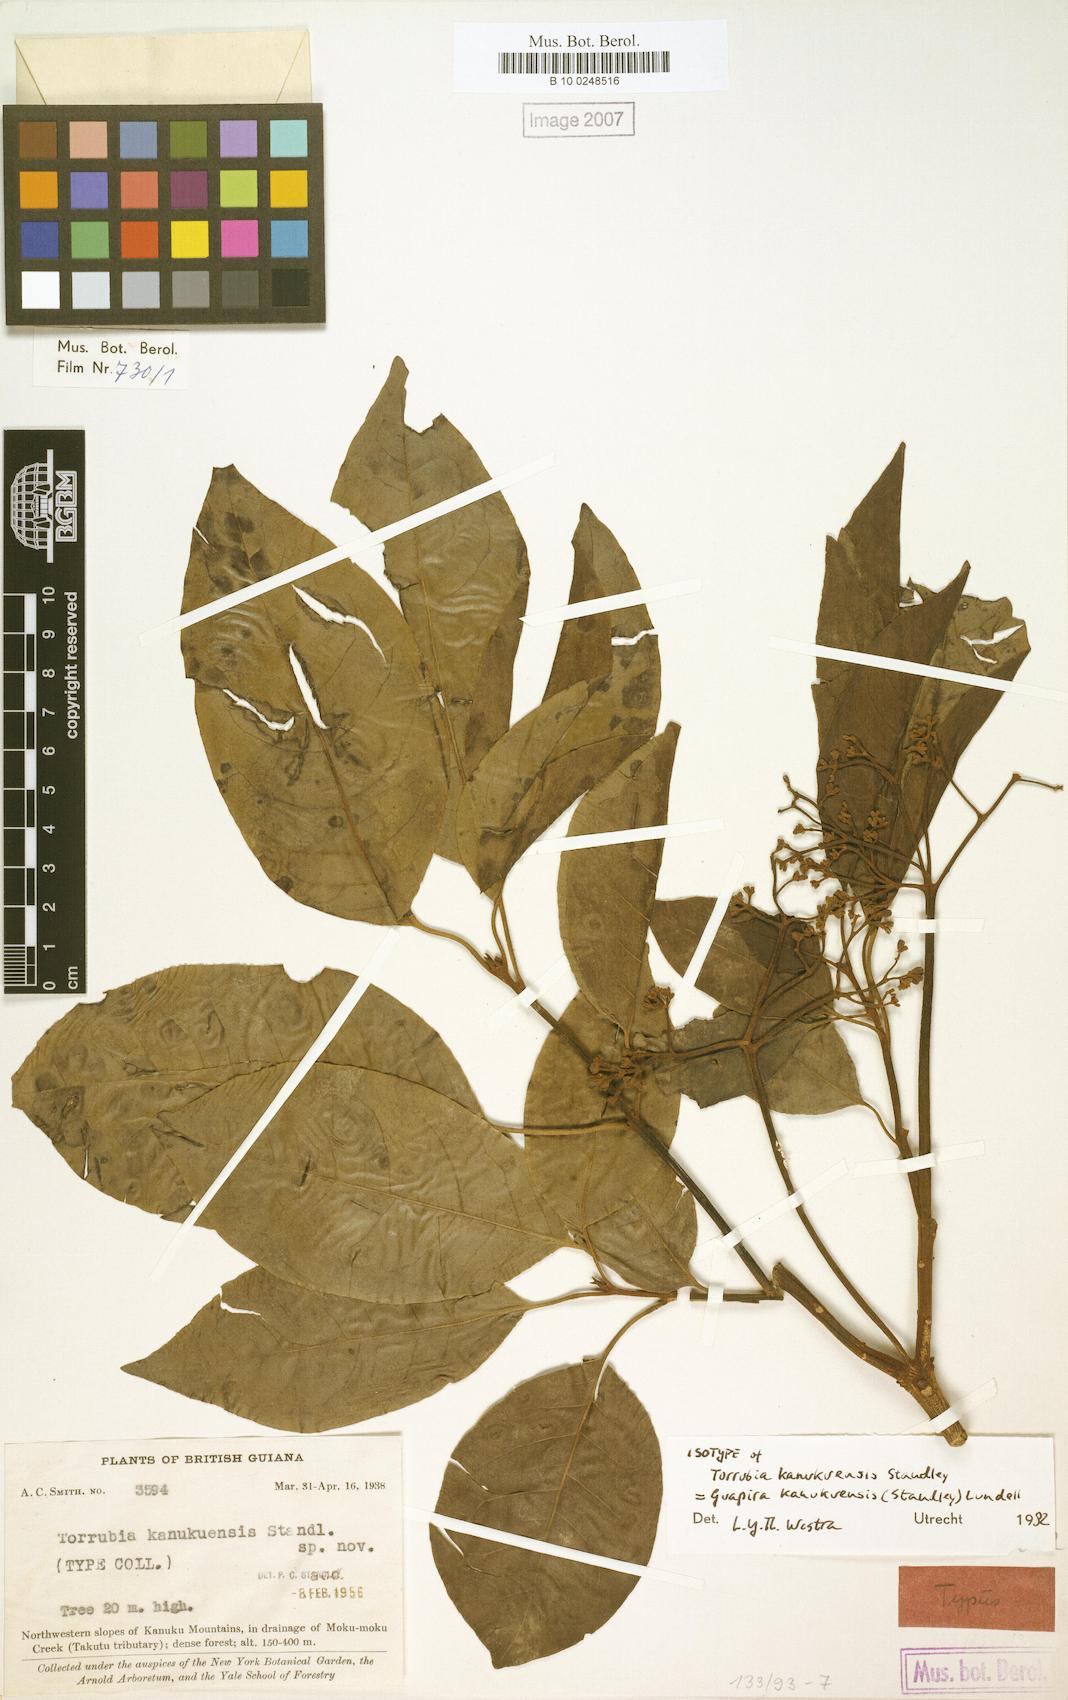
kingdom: Plantae
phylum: Tracheophyta
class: Magnoliopsida
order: Caryophyllales
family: Nyctaginaceae
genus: Guapira
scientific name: Guapira kanukuensis
